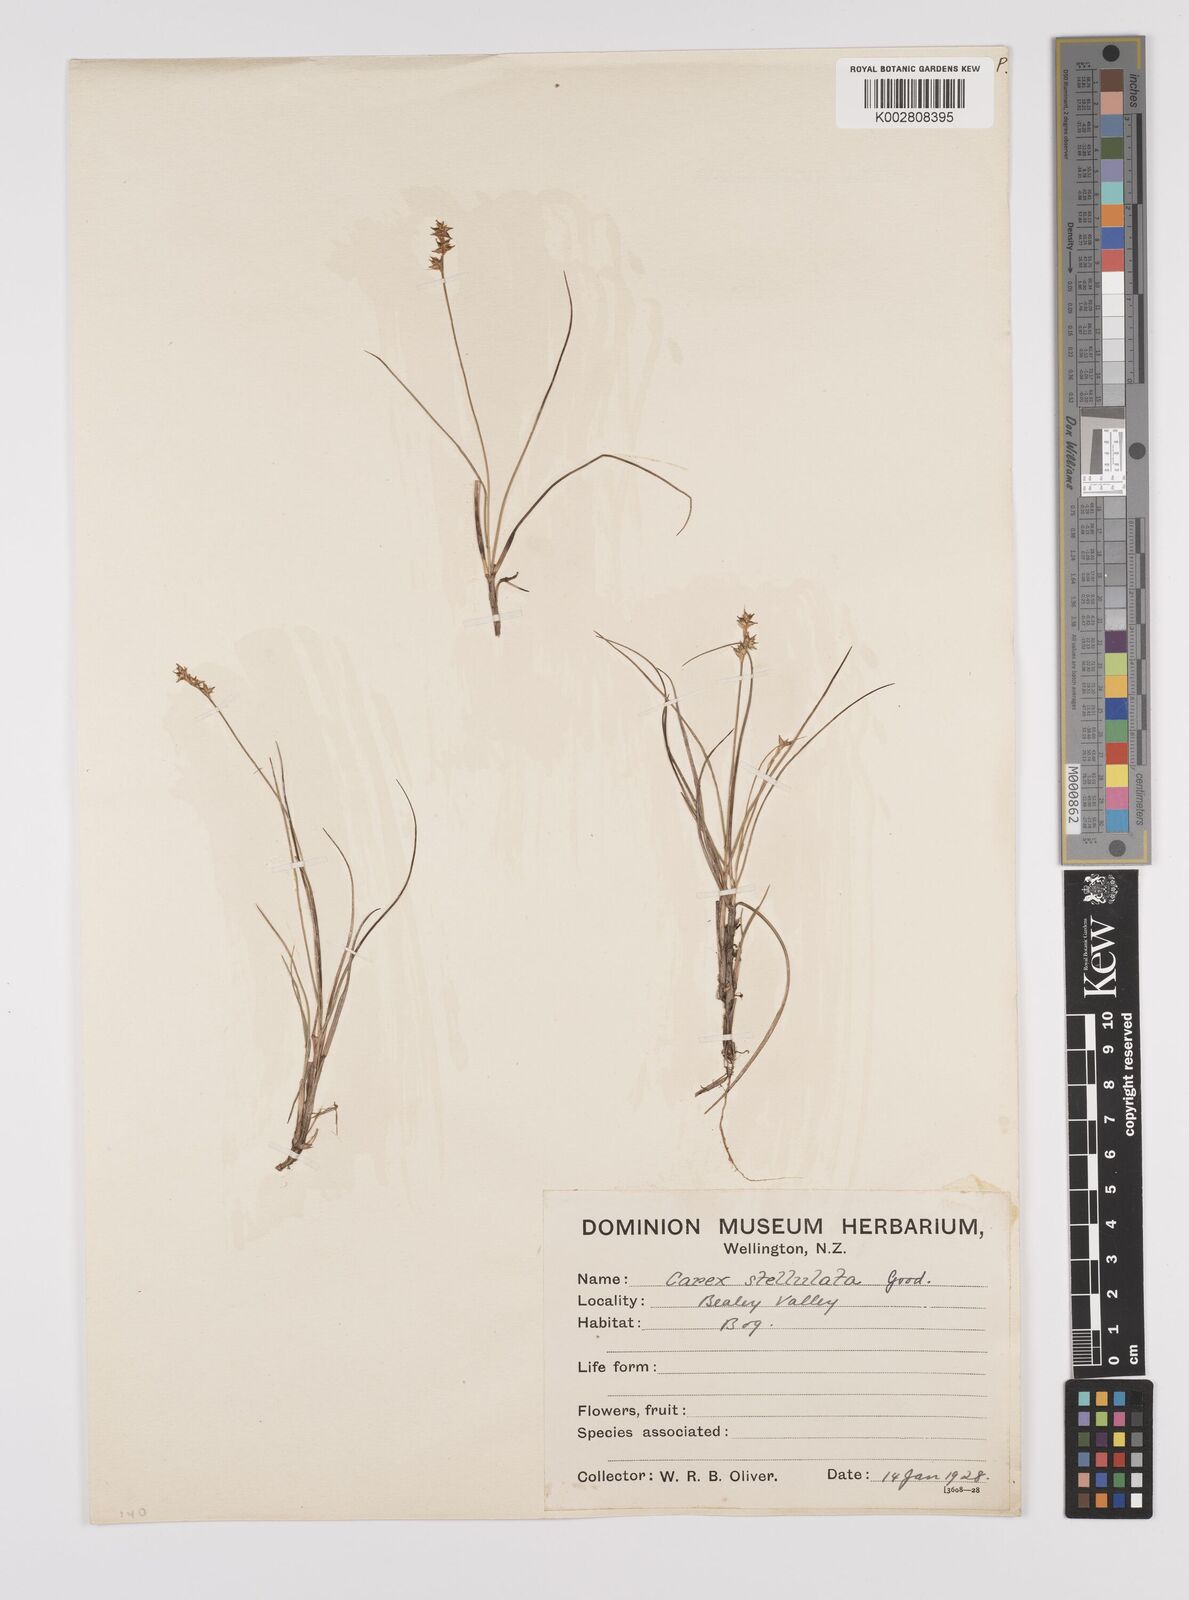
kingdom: Plantae
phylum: Tracheophyta
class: Liliopsida
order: Poales
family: Cyperaceae
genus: Carex
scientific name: Carex echinata
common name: Star sedge
